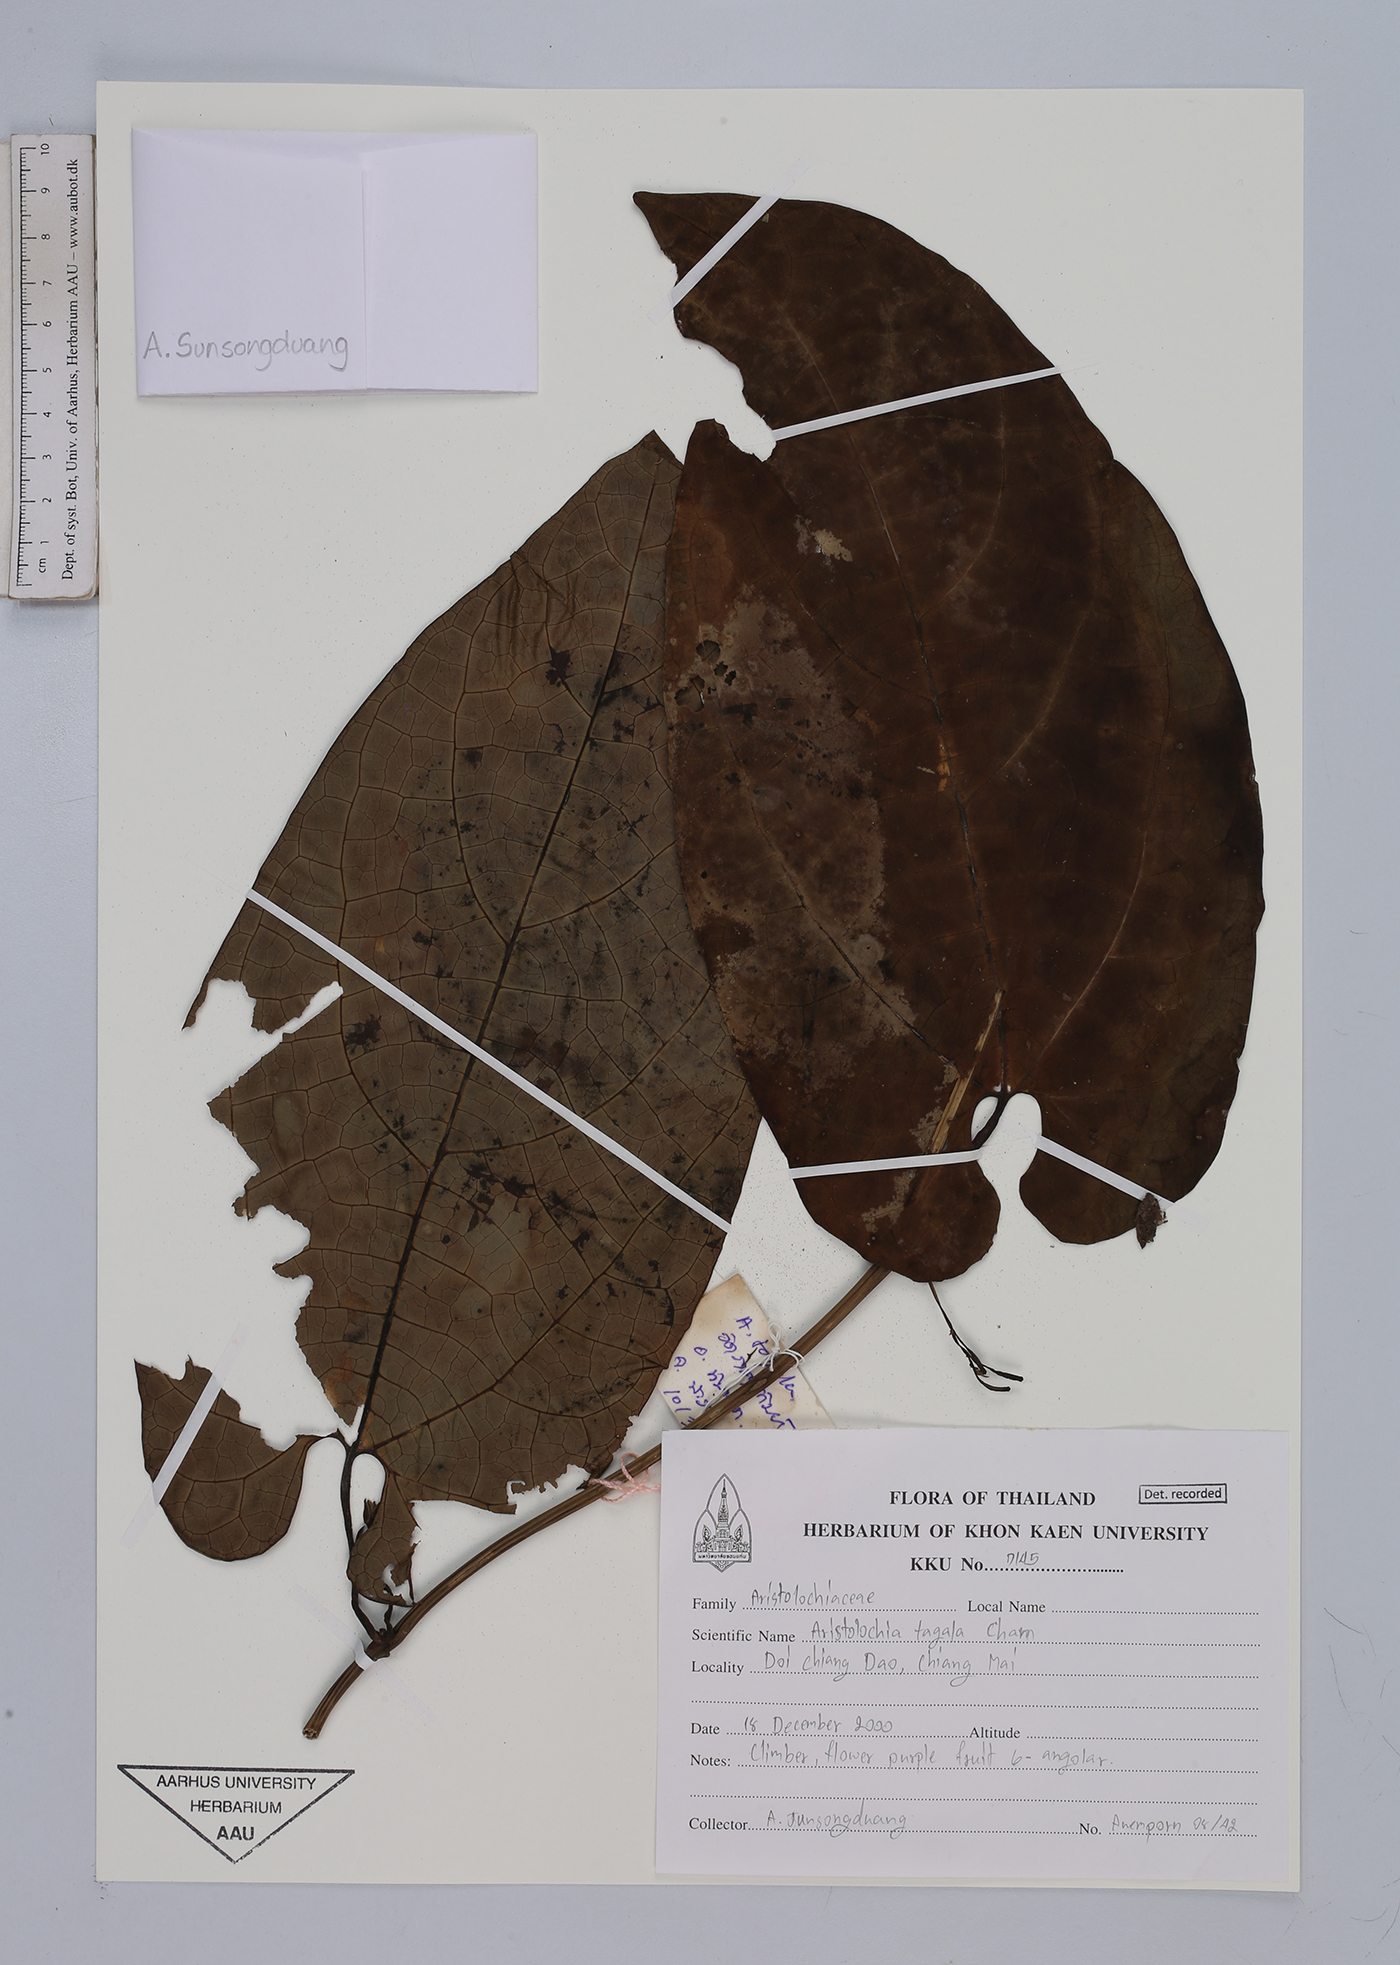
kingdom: Plantae
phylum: Tracheophyta
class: Magnoliopsida
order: Piperales
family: Aristolochiaceae
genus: Aristolochia
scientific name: Aristolochia acuminata
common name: Indian birthwort
